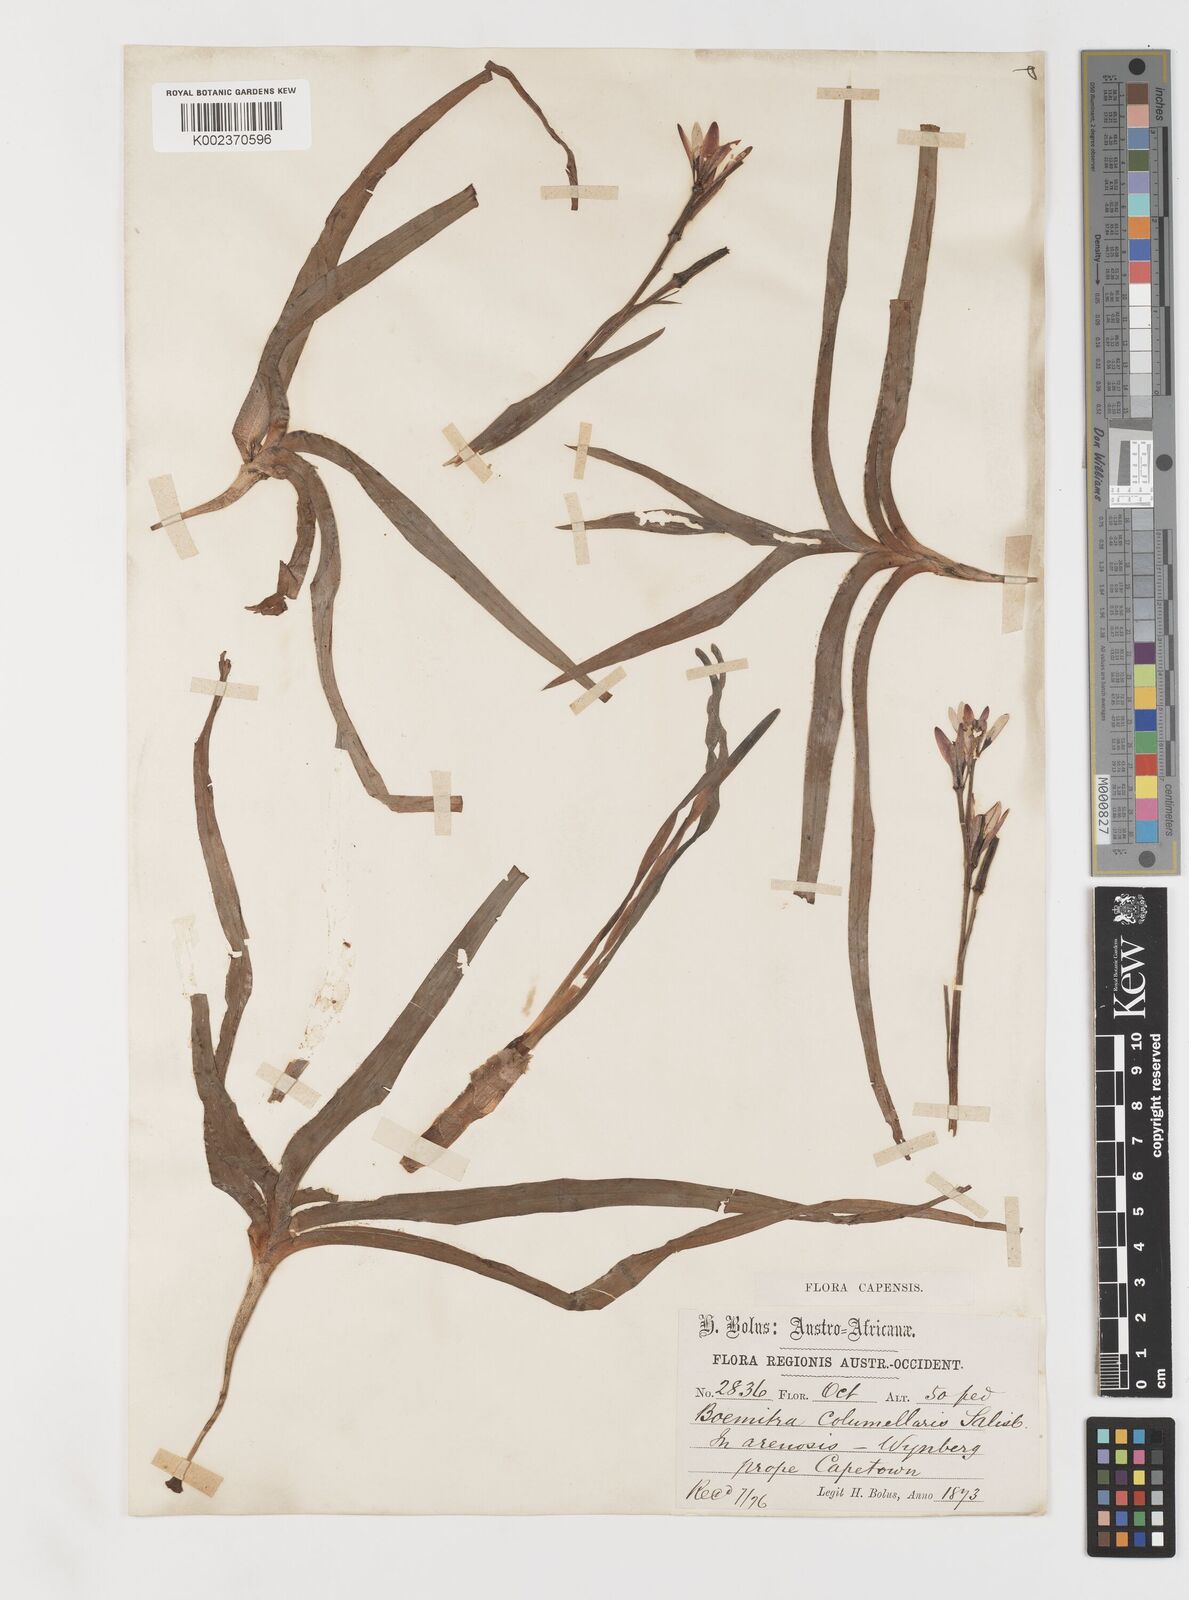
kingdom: Plantae
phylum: Tracheophyta
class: Liliopsida
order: Liliales
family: Colchicaceae
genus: Baeometra
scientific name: Baeometra uniflora
